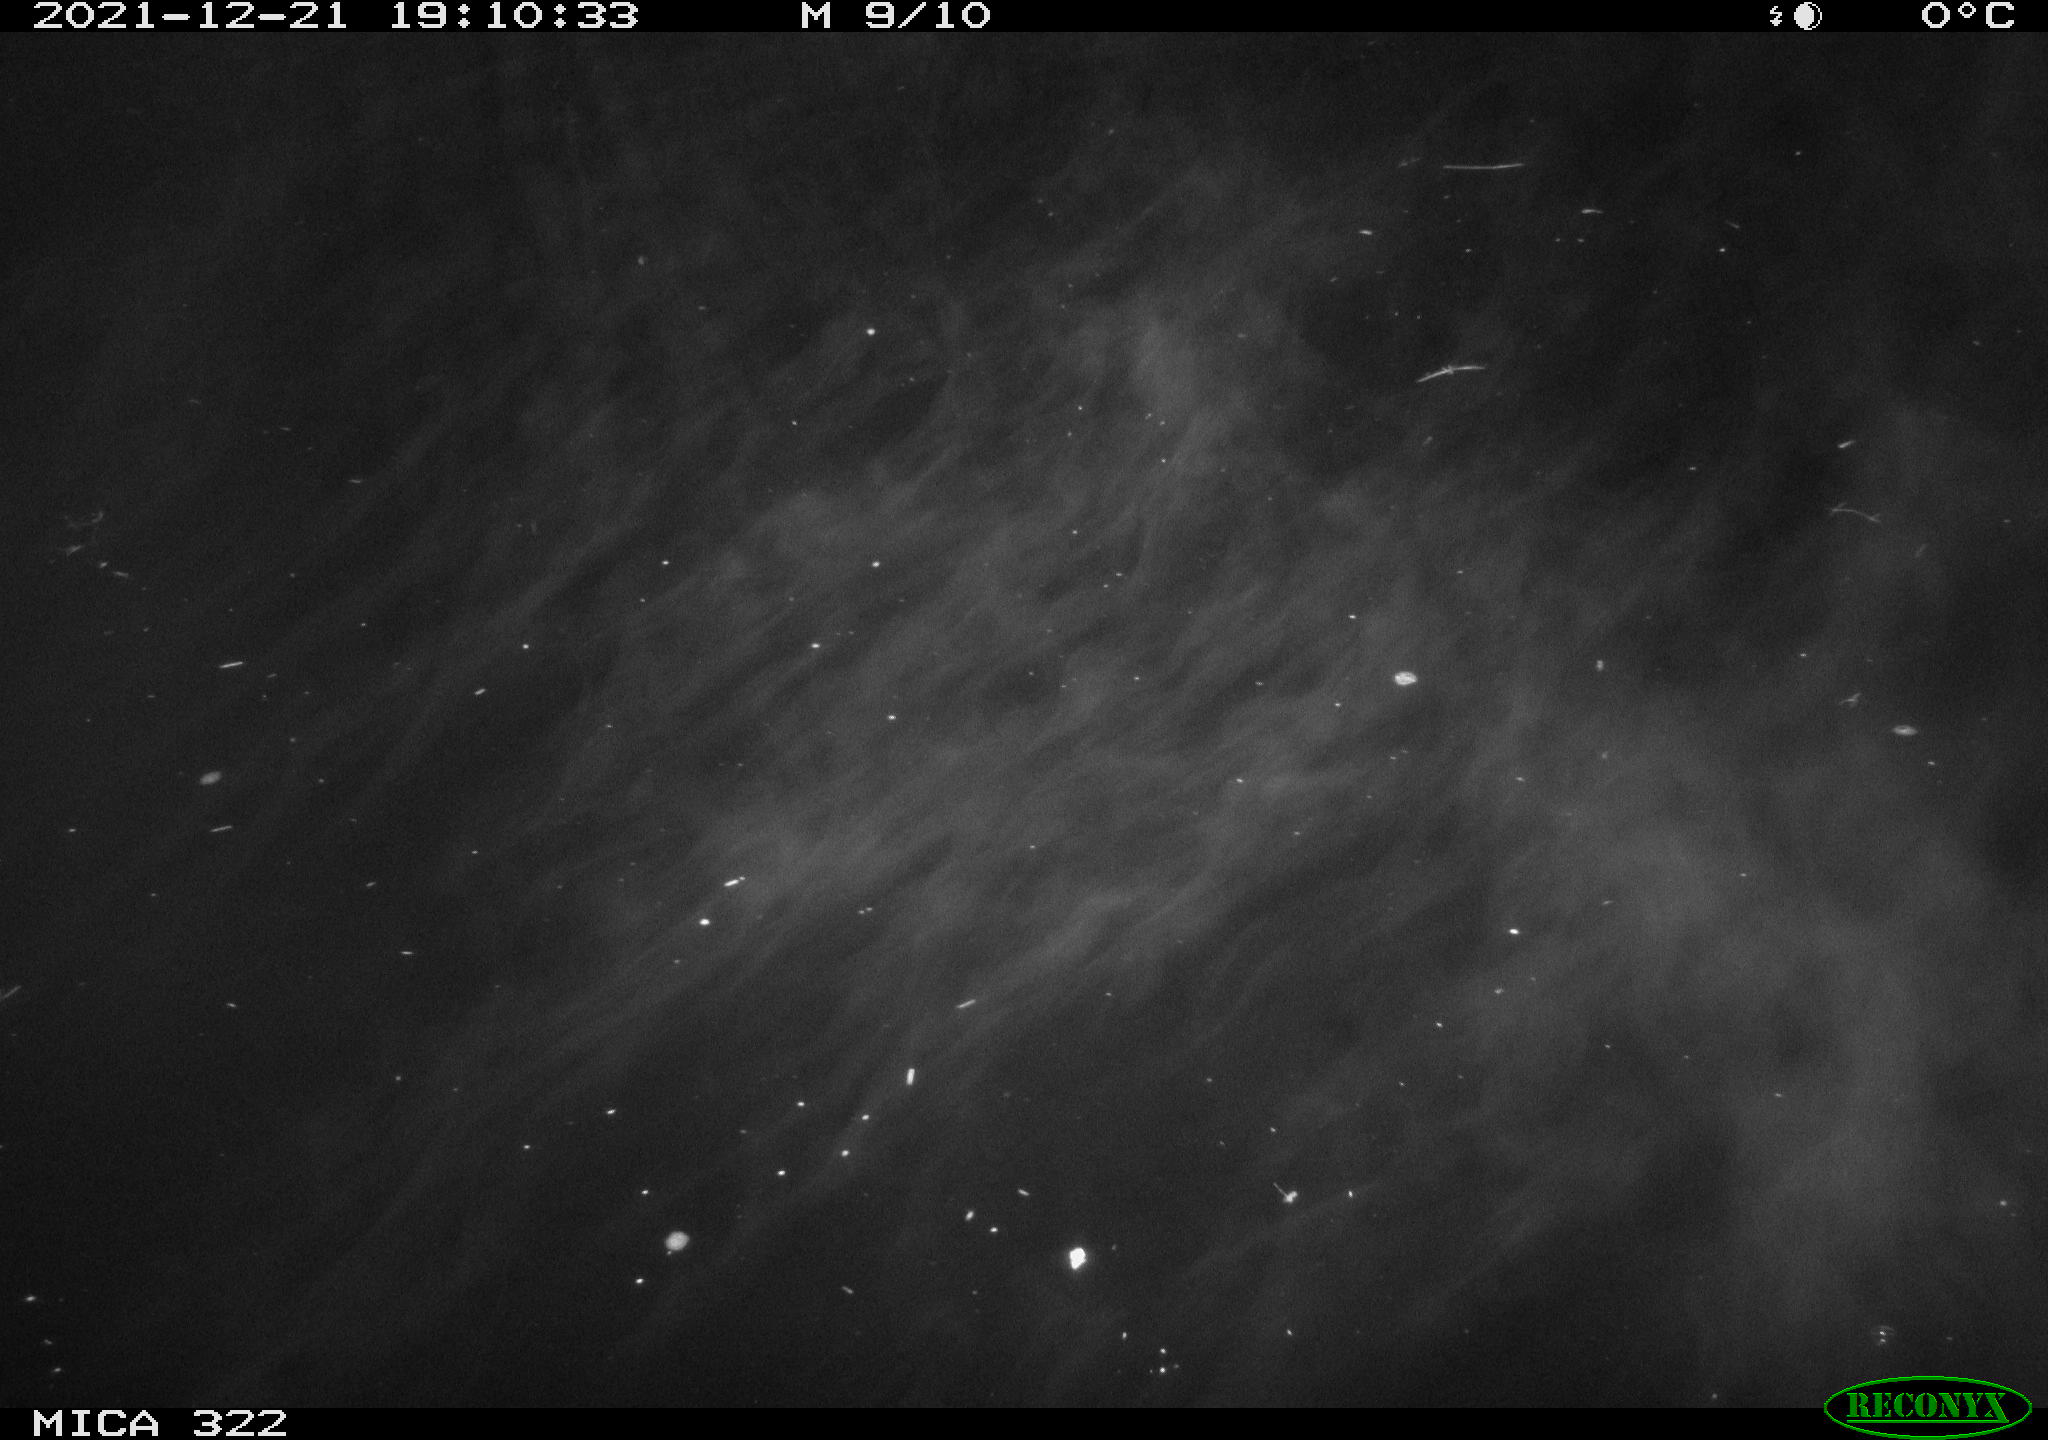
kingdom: Animalia
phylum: Chordata
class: Aves
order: Anseriformes
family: Anatidae
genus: Anas
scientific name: Anas
